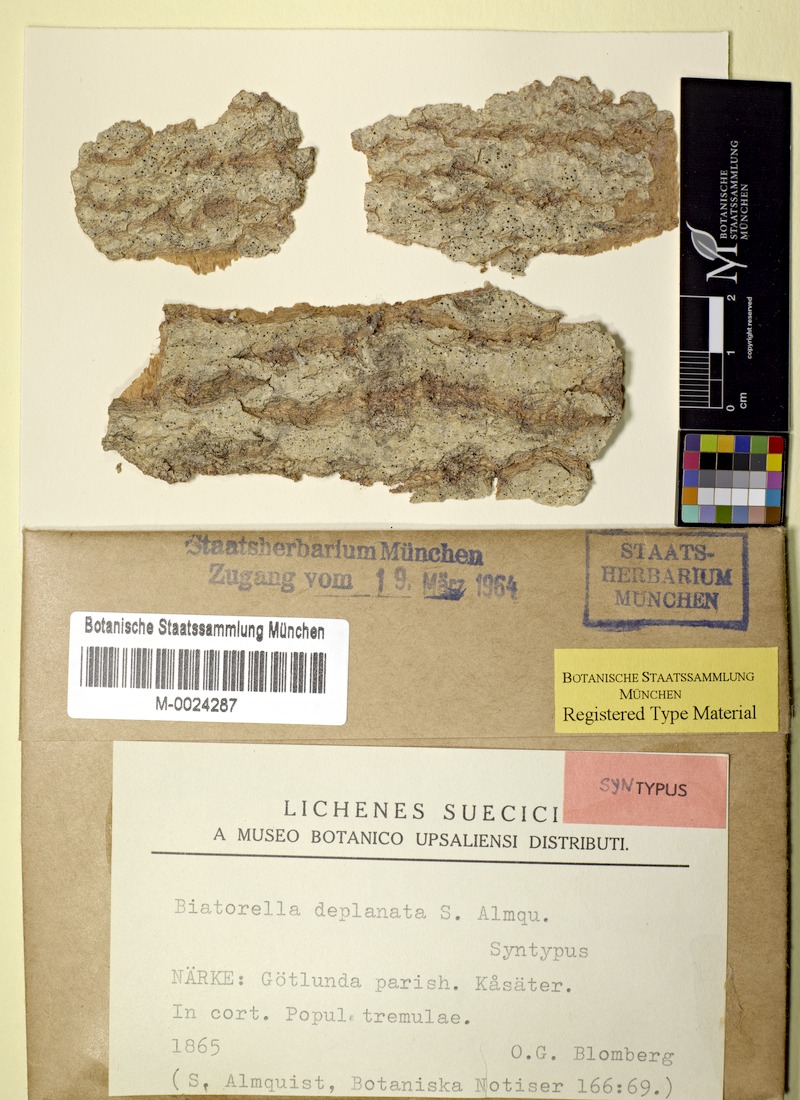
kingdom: Fungi
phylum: Ascomycota
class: Lecanoromycetes
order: Lecanorales
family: Strangosporaceae
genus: Strangospora
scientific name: Strangospora deplanata
